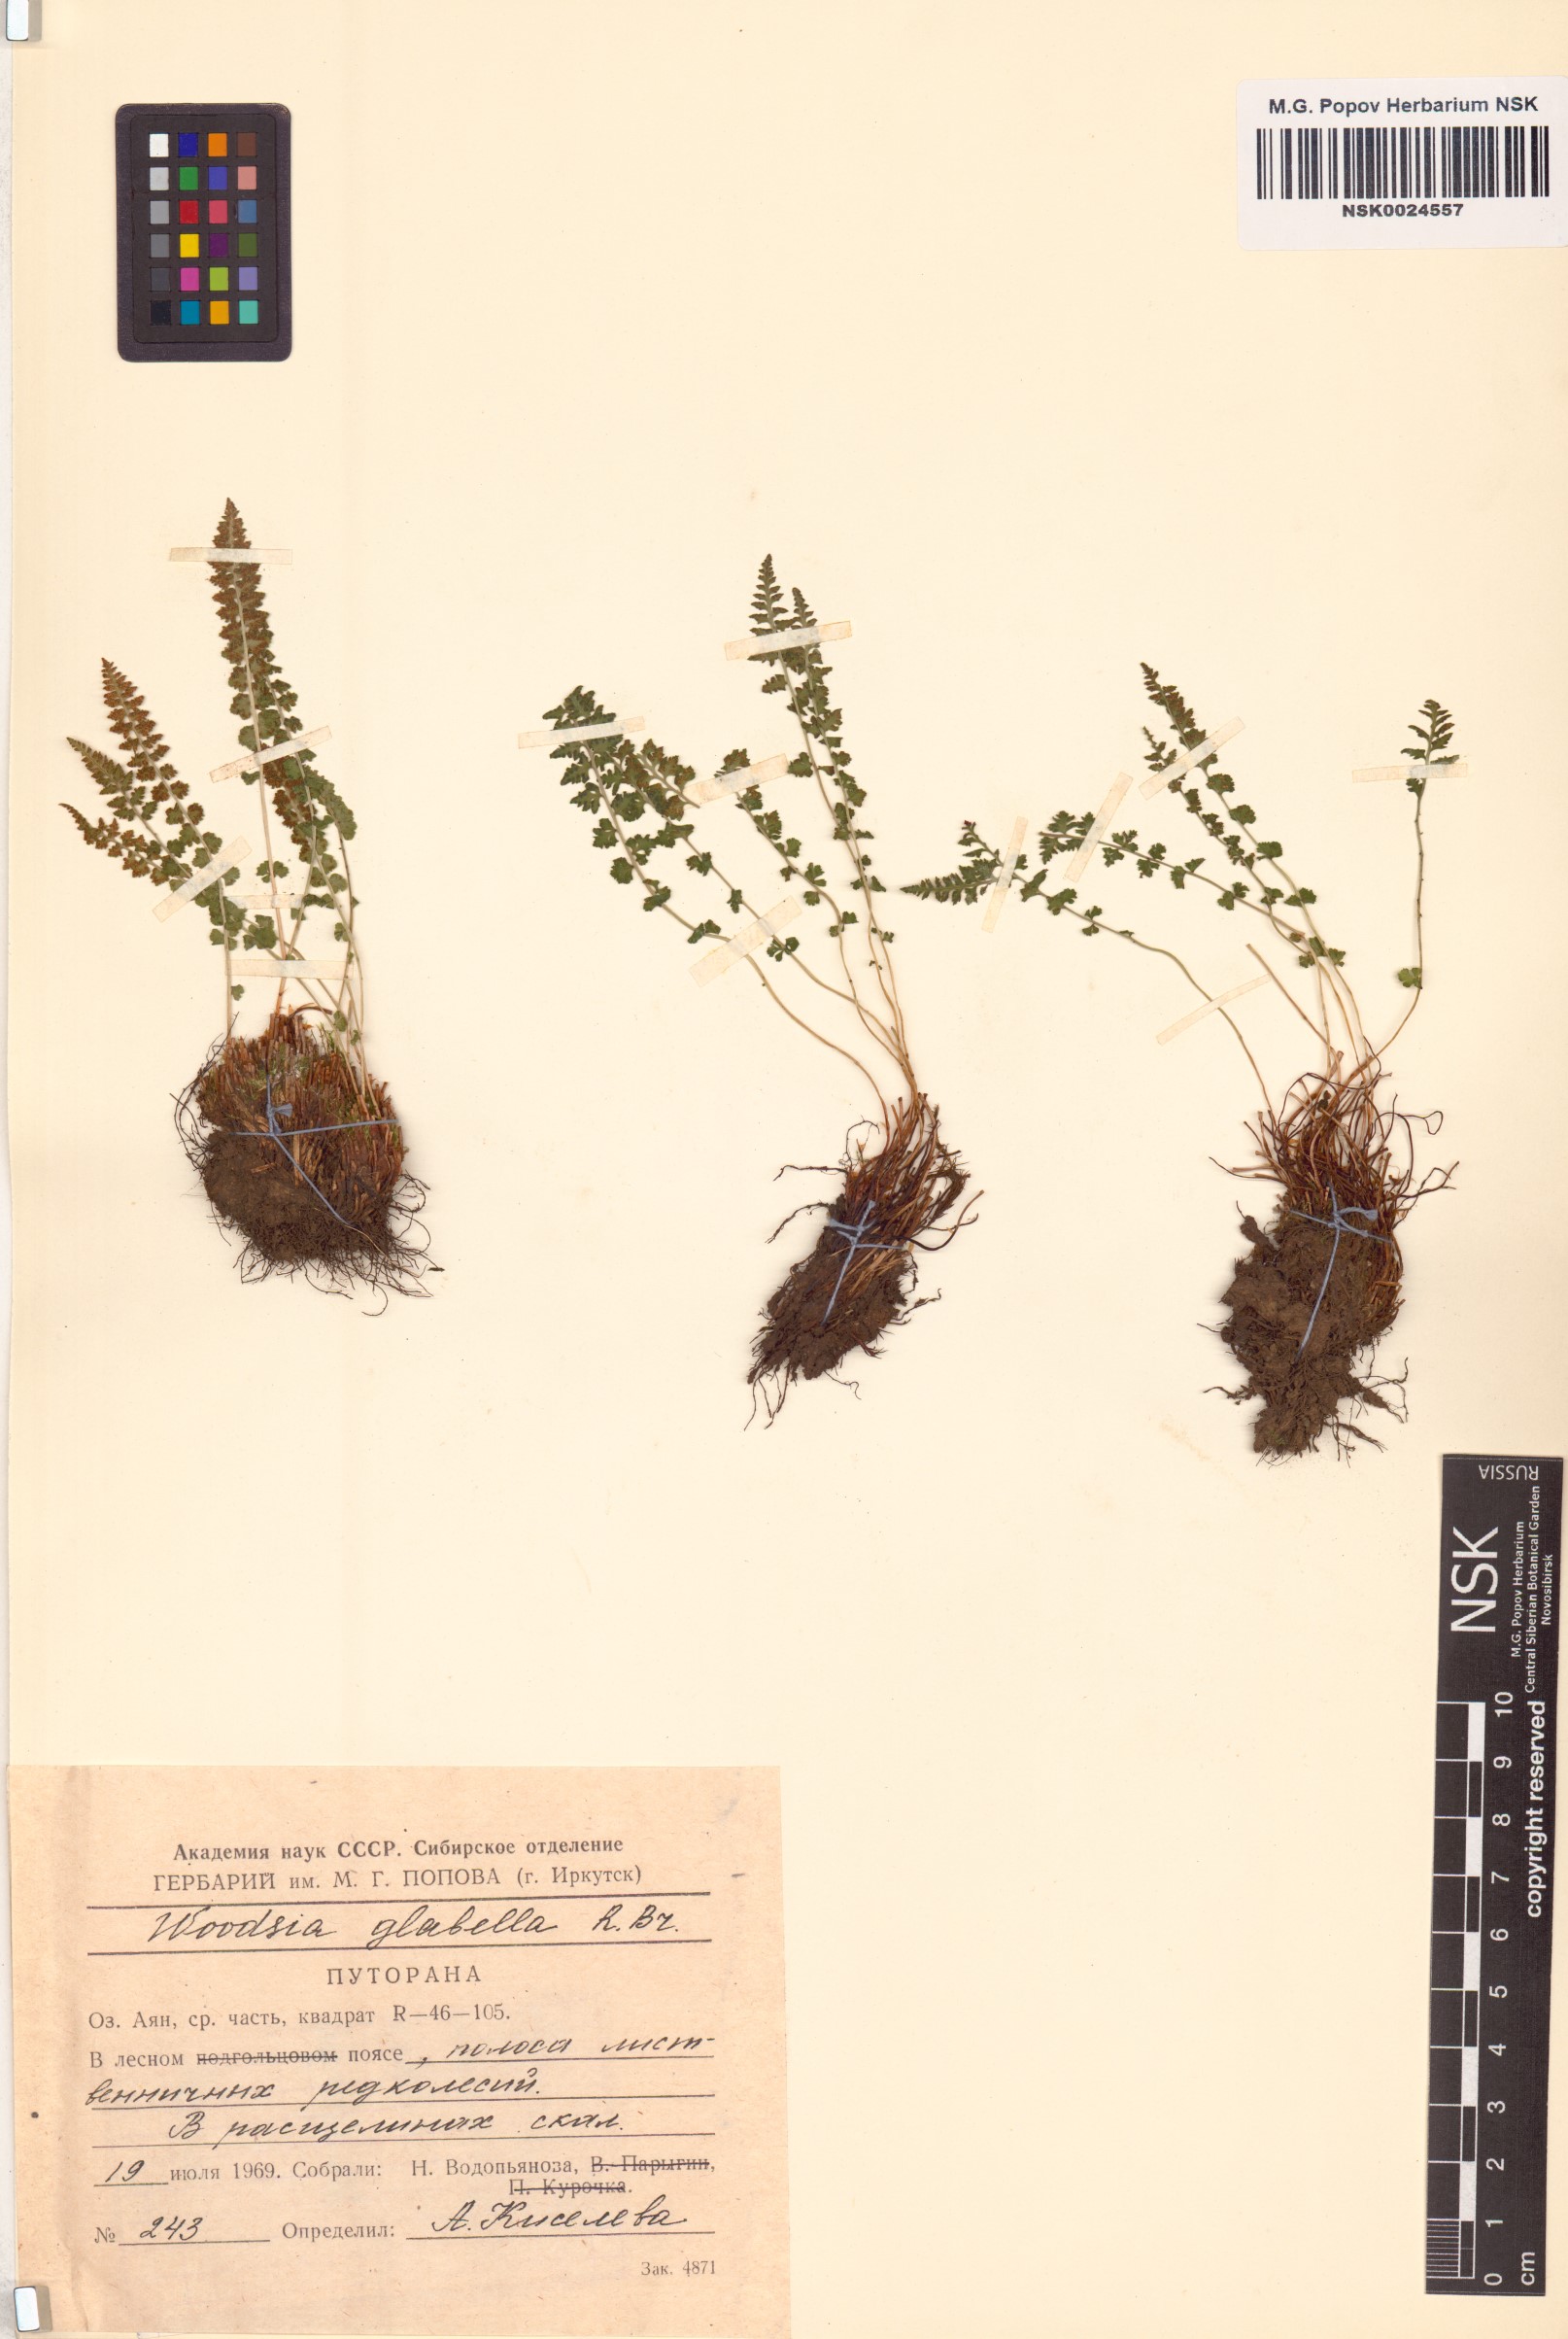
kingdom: Plantae
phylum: Tracheophyta
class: Polypodiopsida
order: Polypodiales
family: Woodsiaceae
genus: Woodsia
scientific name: Woodsia glabella
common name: Smooth woodsia
